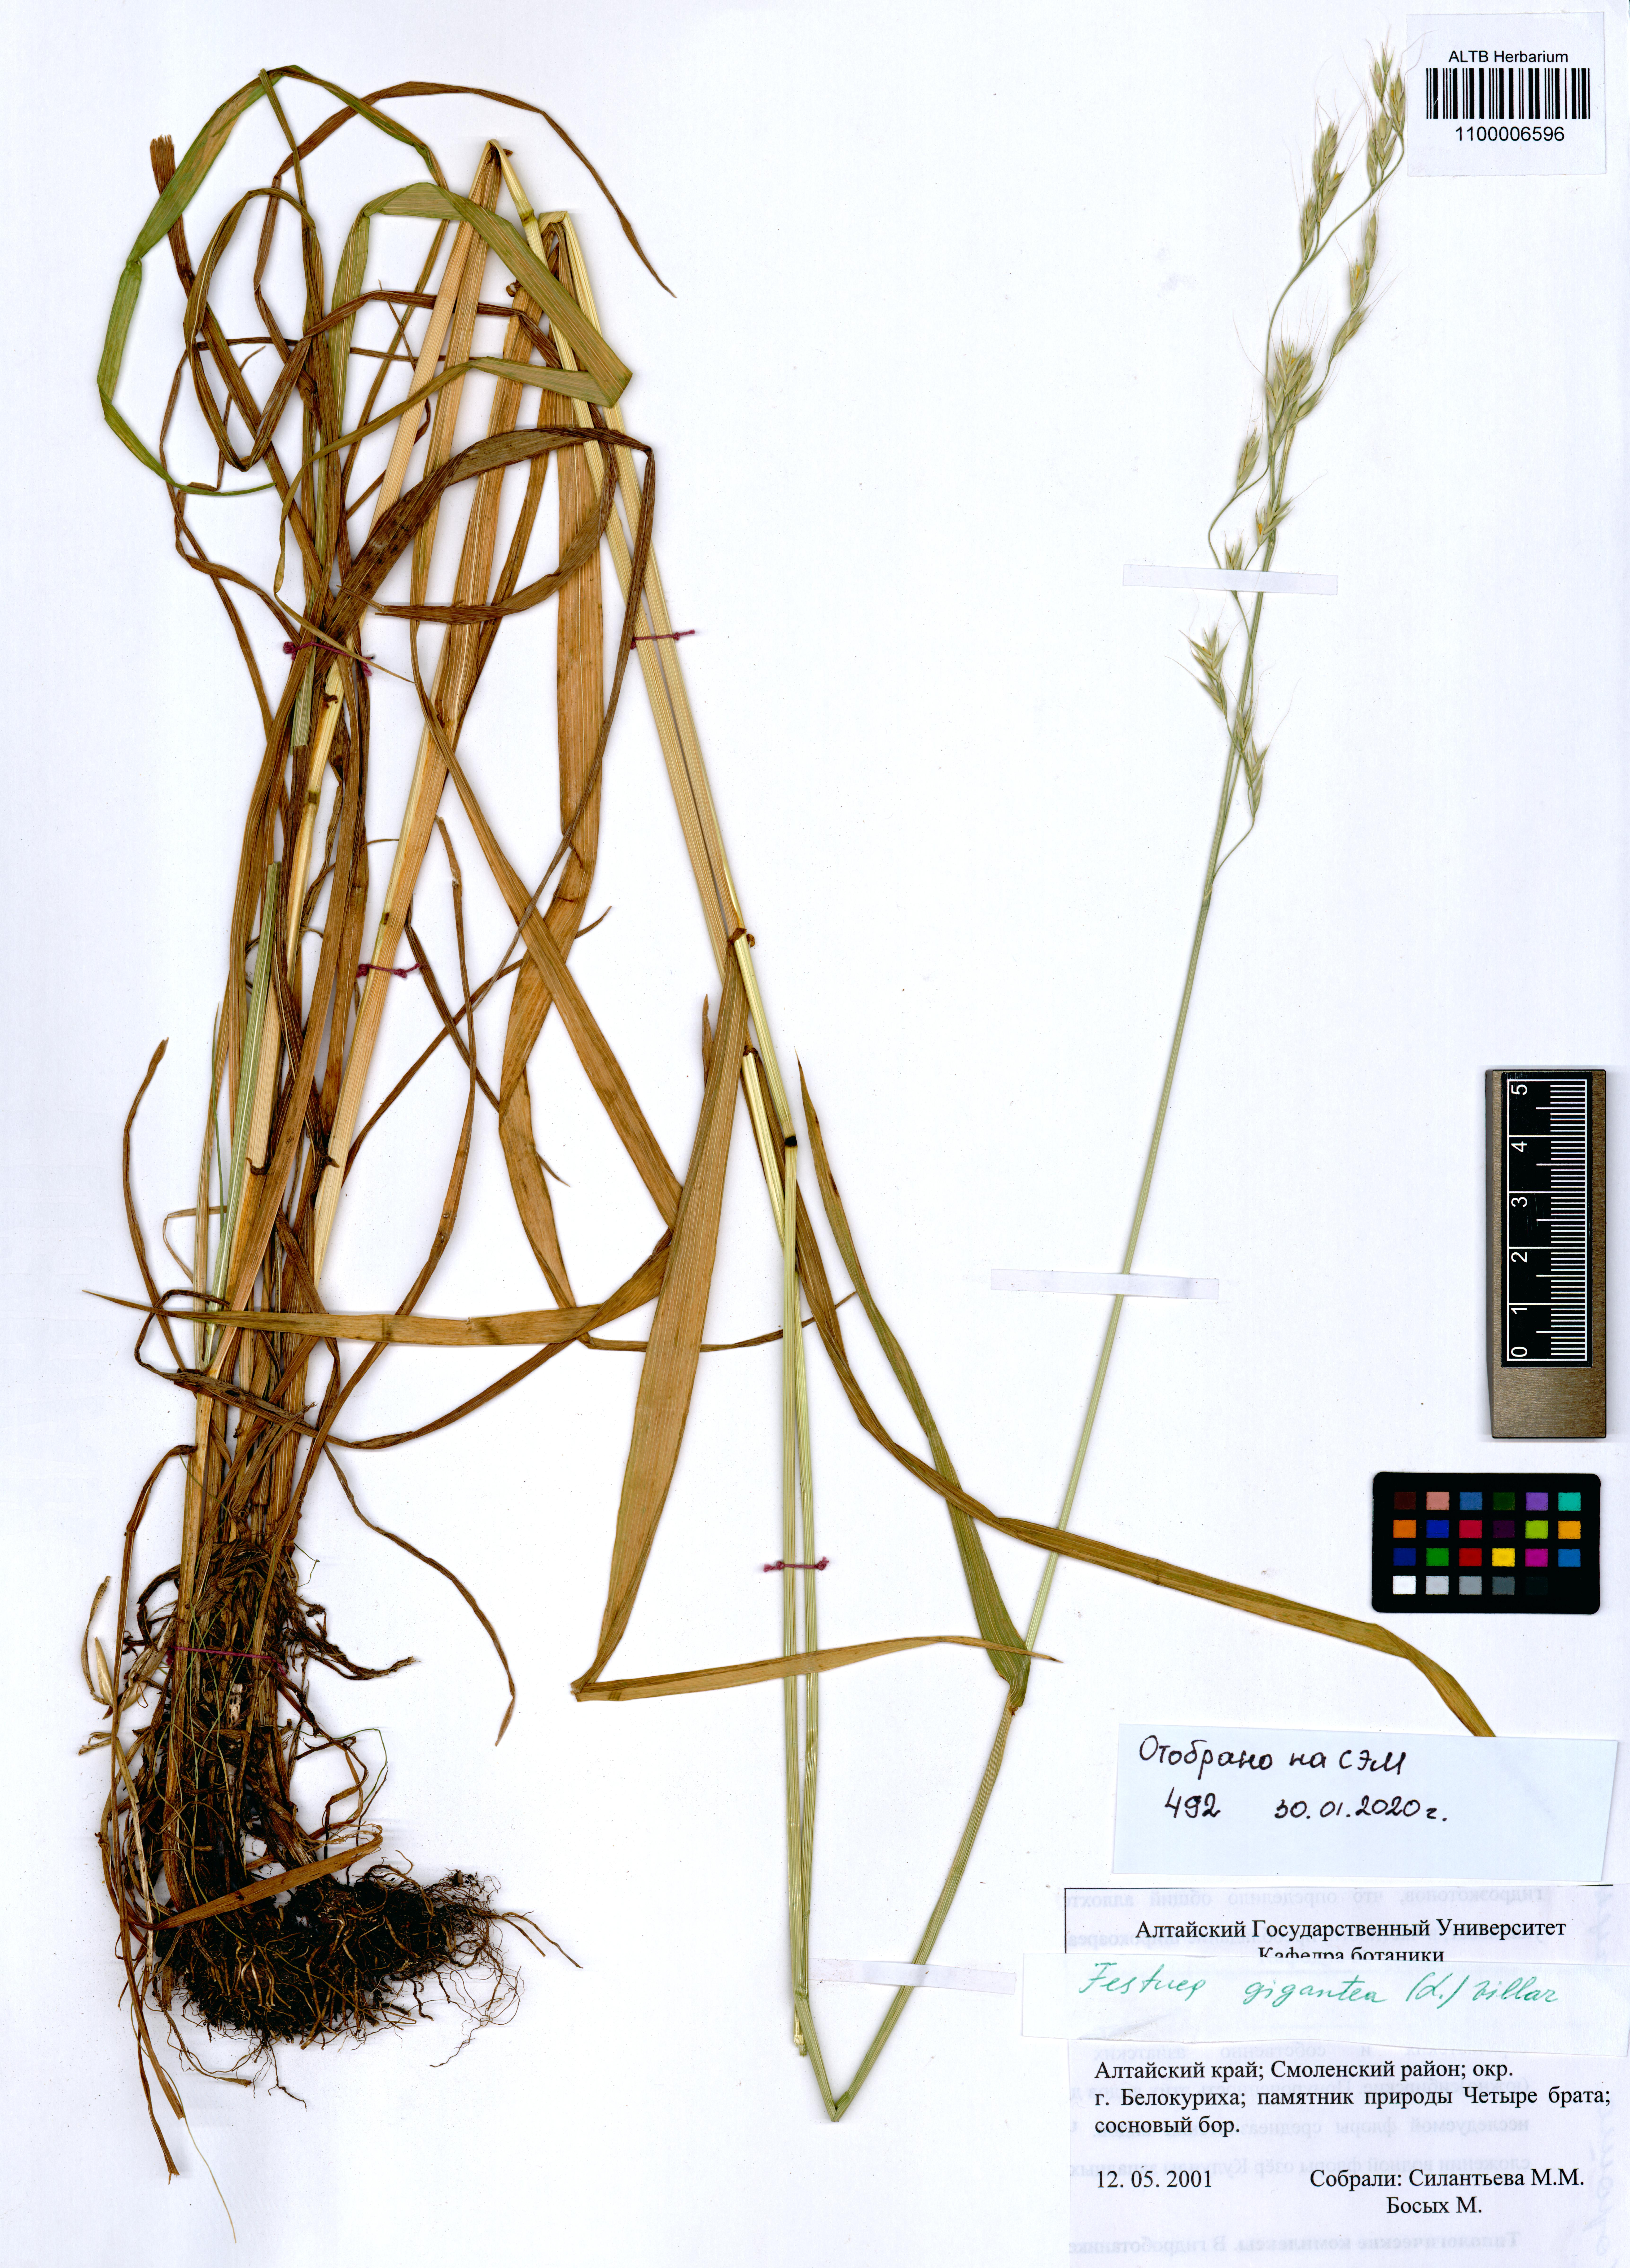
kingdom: Plantae
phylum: Tracheophyta
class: Liliopsida
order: Poales
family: Poaceae
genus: Lolium
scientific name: Lolium giganteum
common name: Giant fescue
